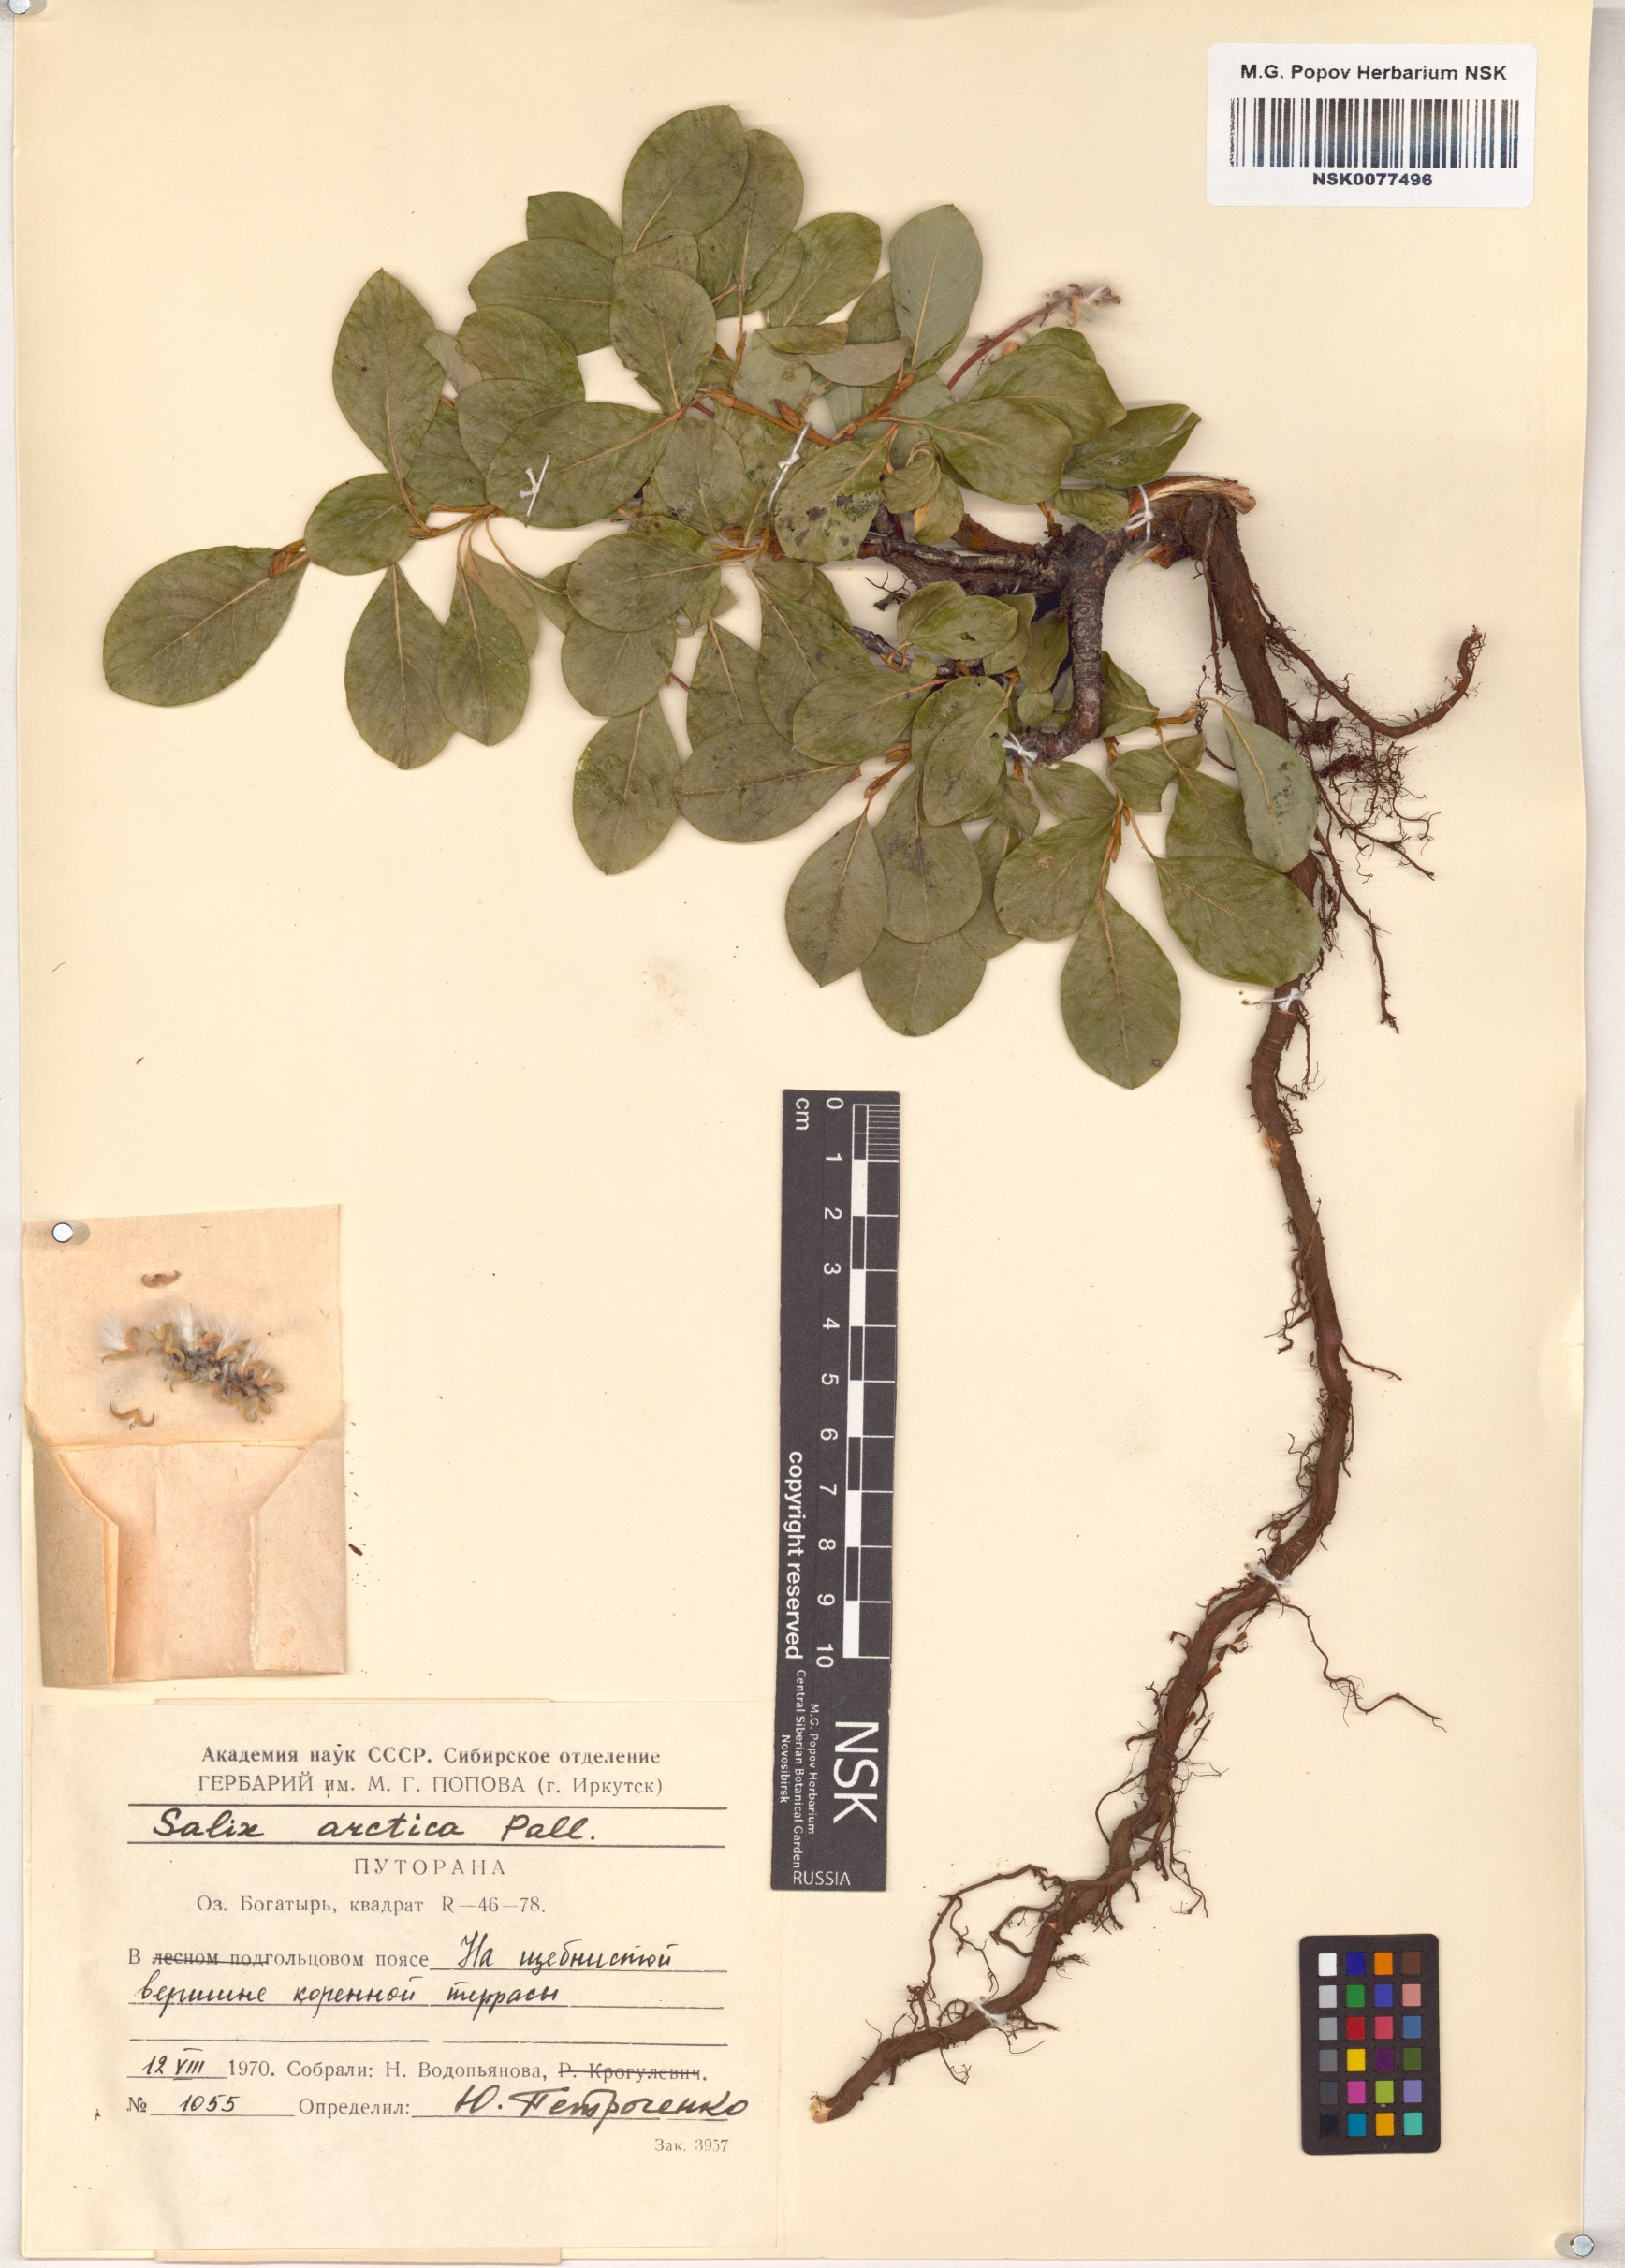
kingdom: Plantae
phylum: Tracheophyta
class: Magnoliopsida
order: Malpighiales
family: Salicaceae
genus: Salix
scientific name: Salix arctica
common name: Arctic willow
